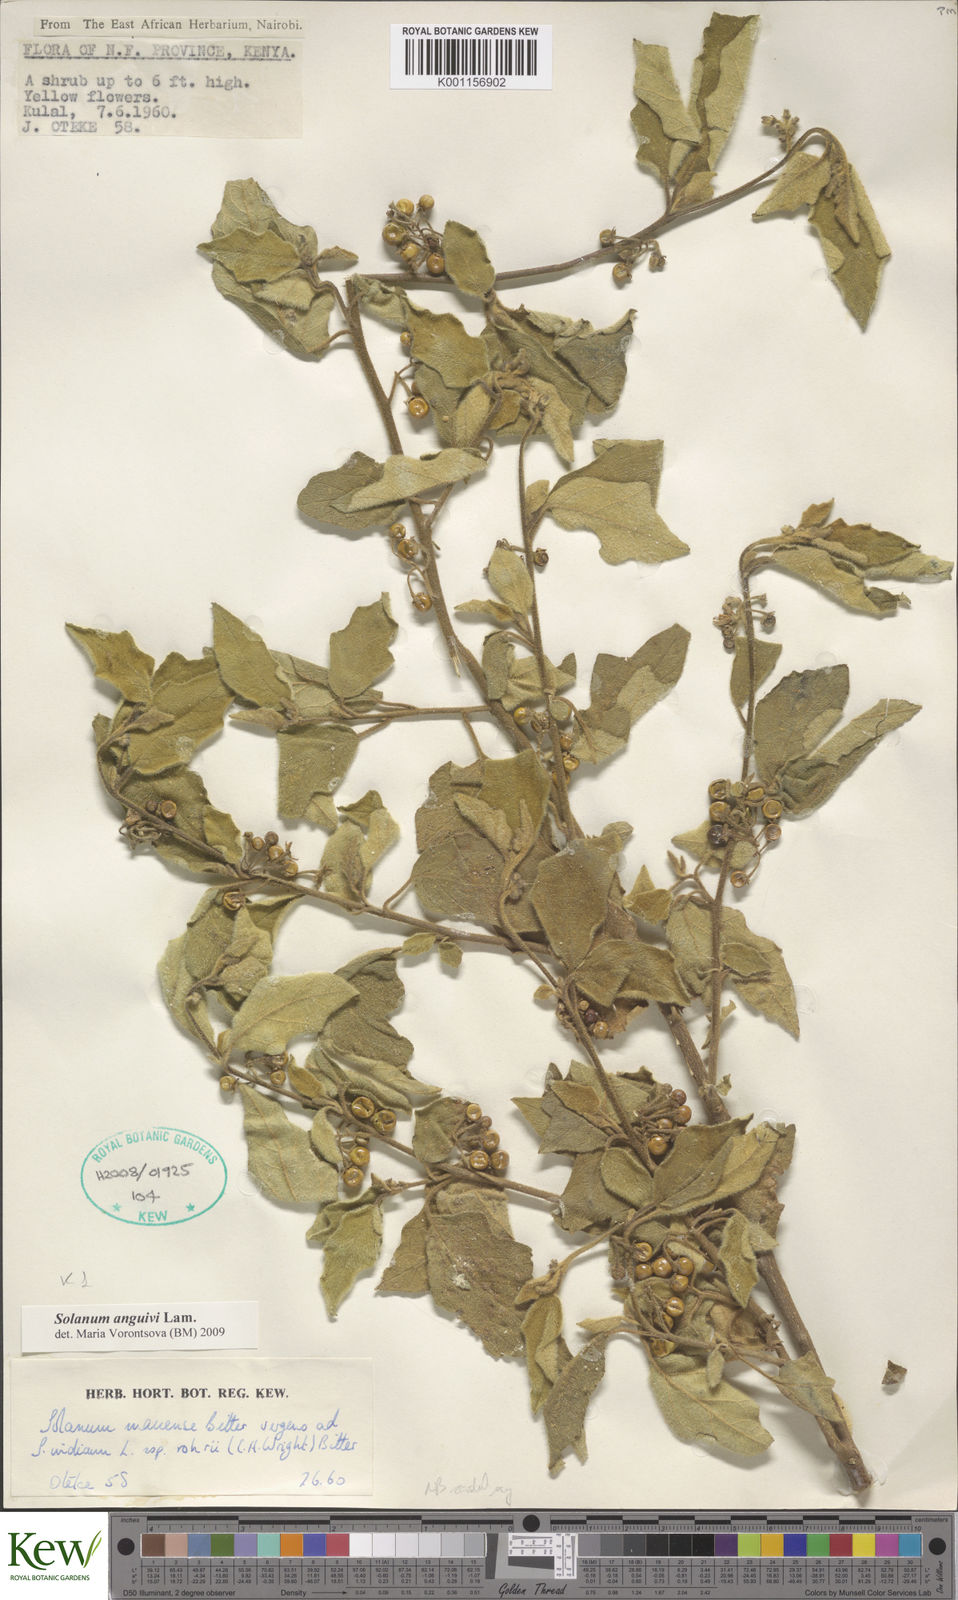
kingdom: Plantae
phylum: Tracheophyta
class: Magnoliopsida
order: Solanales
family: Solanaceae
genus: Solanum
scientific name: Solanum anguivi
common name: Forest bitterberry
